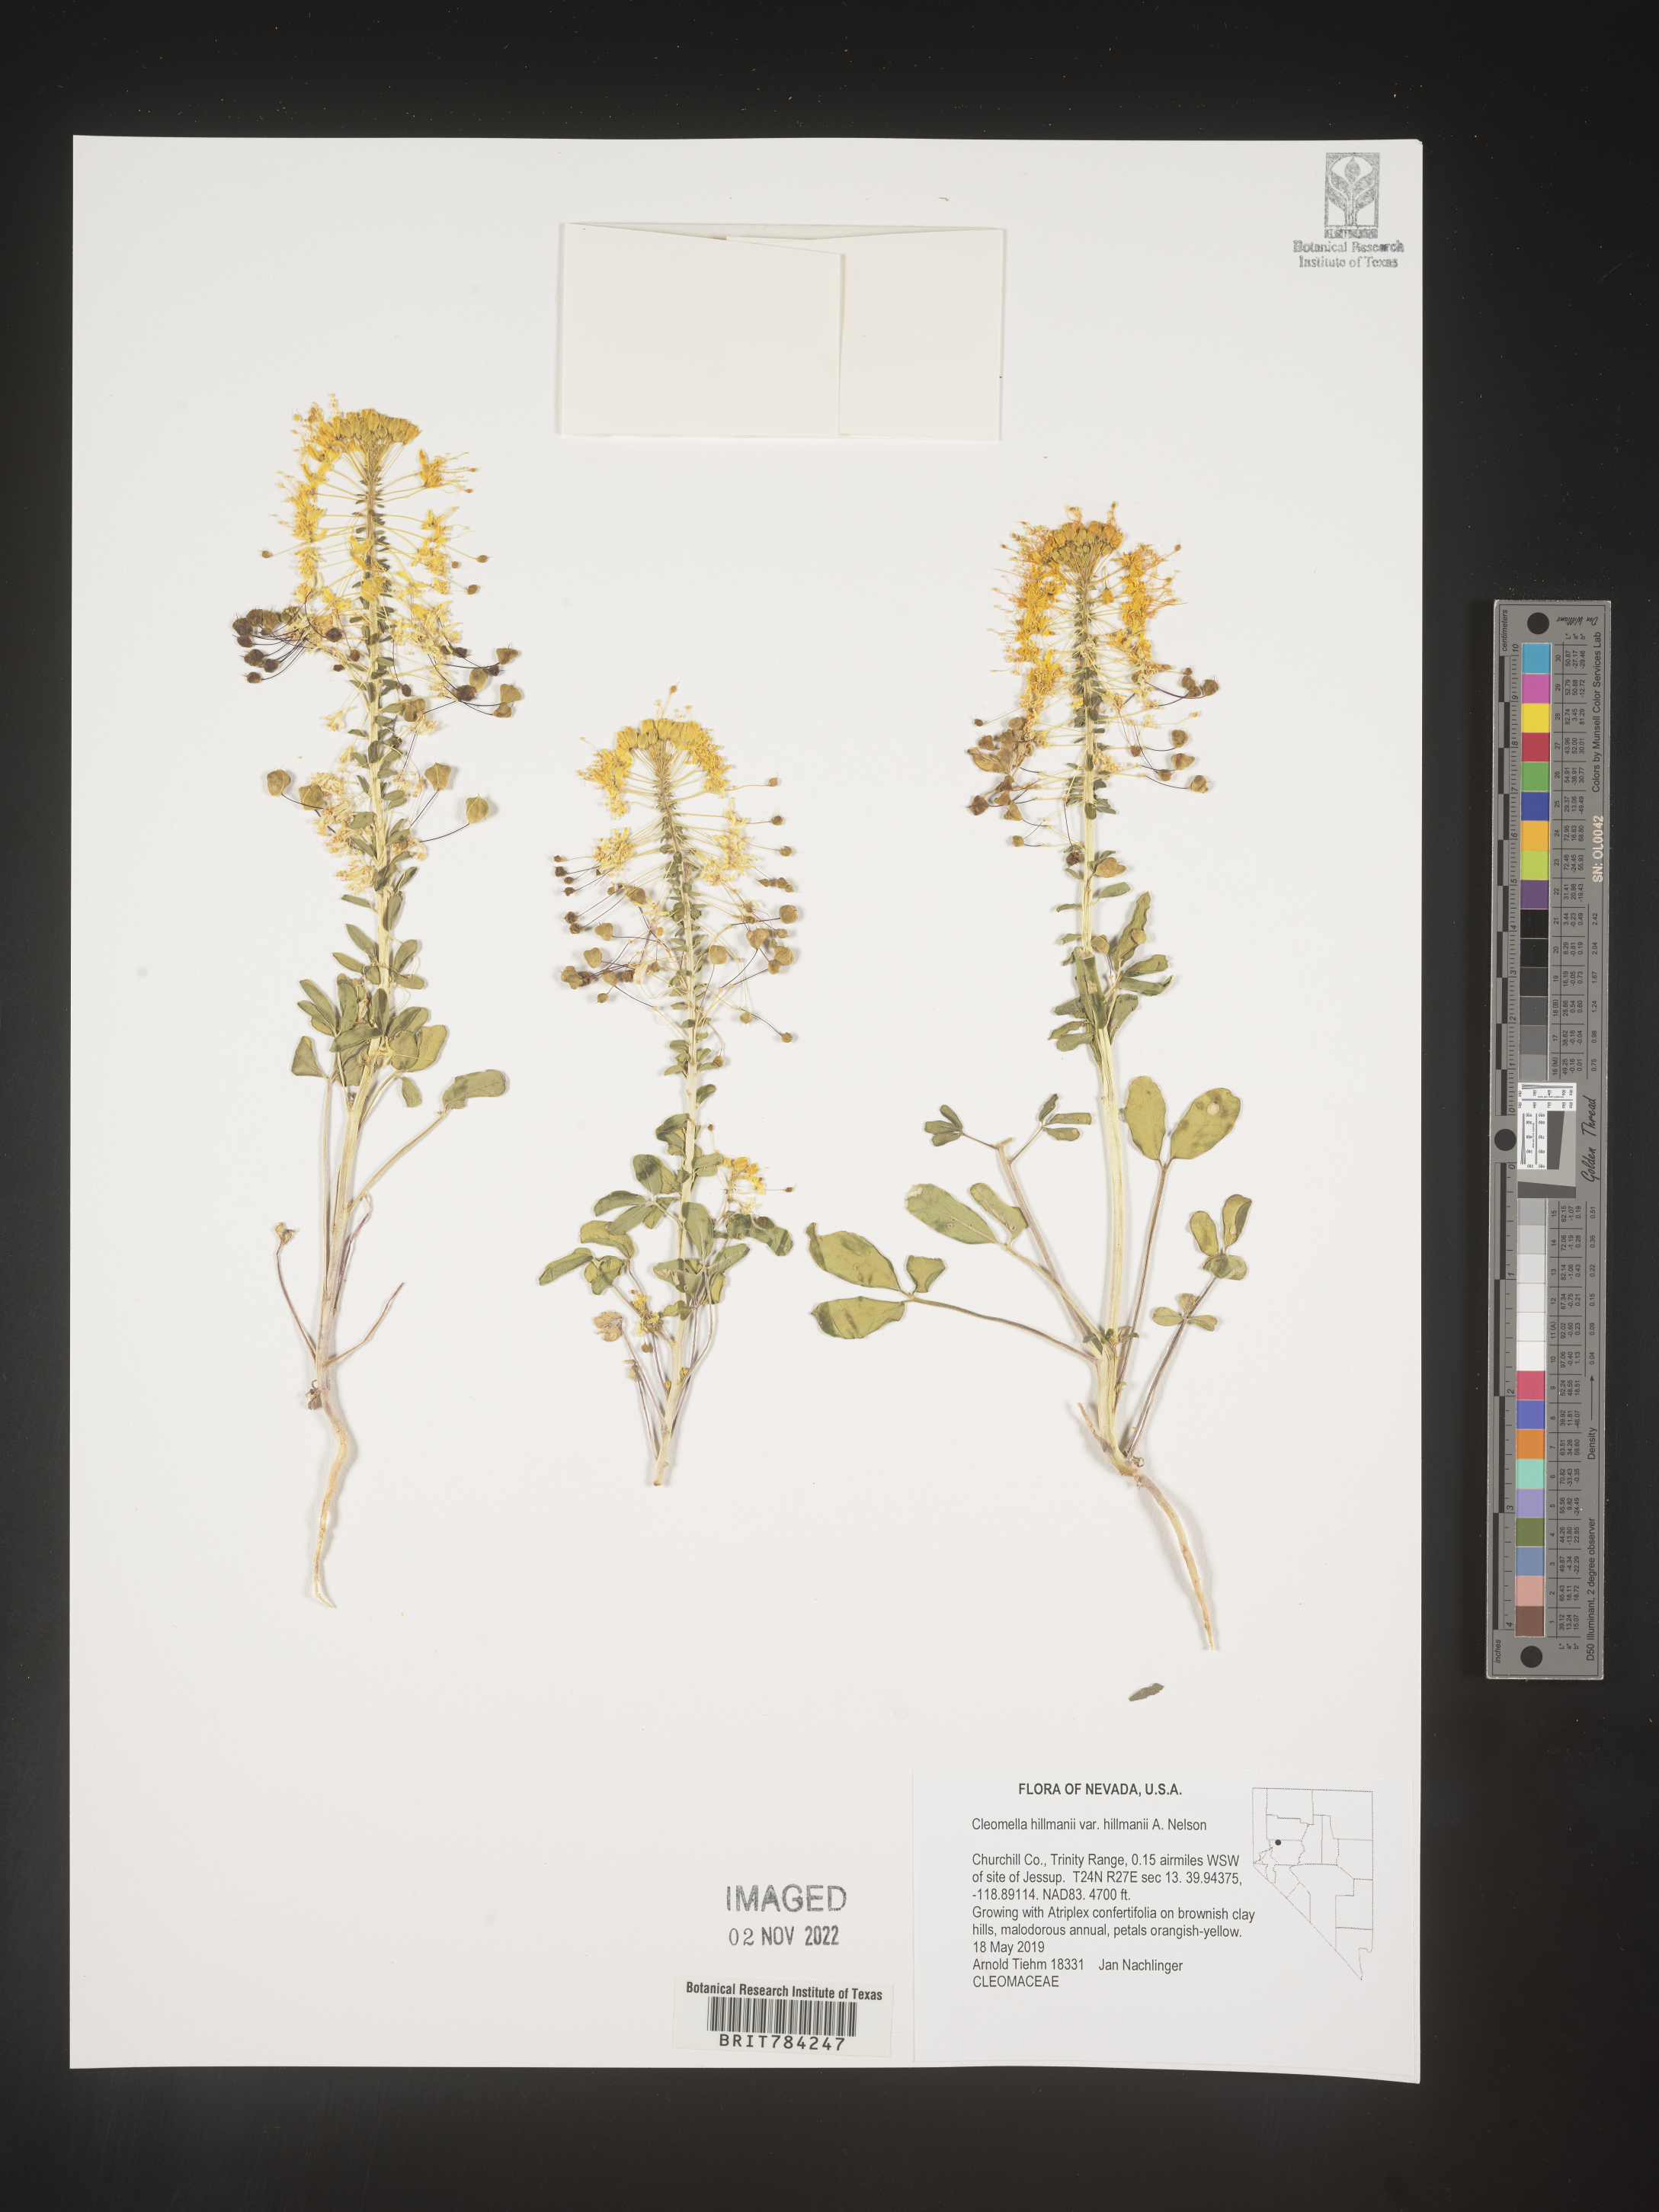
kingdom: Plantae
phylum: Tracheophyta
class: Magnoliopsida
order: Brassicales
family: Cleomaceae
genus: Cleomella
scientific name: Cleomella
